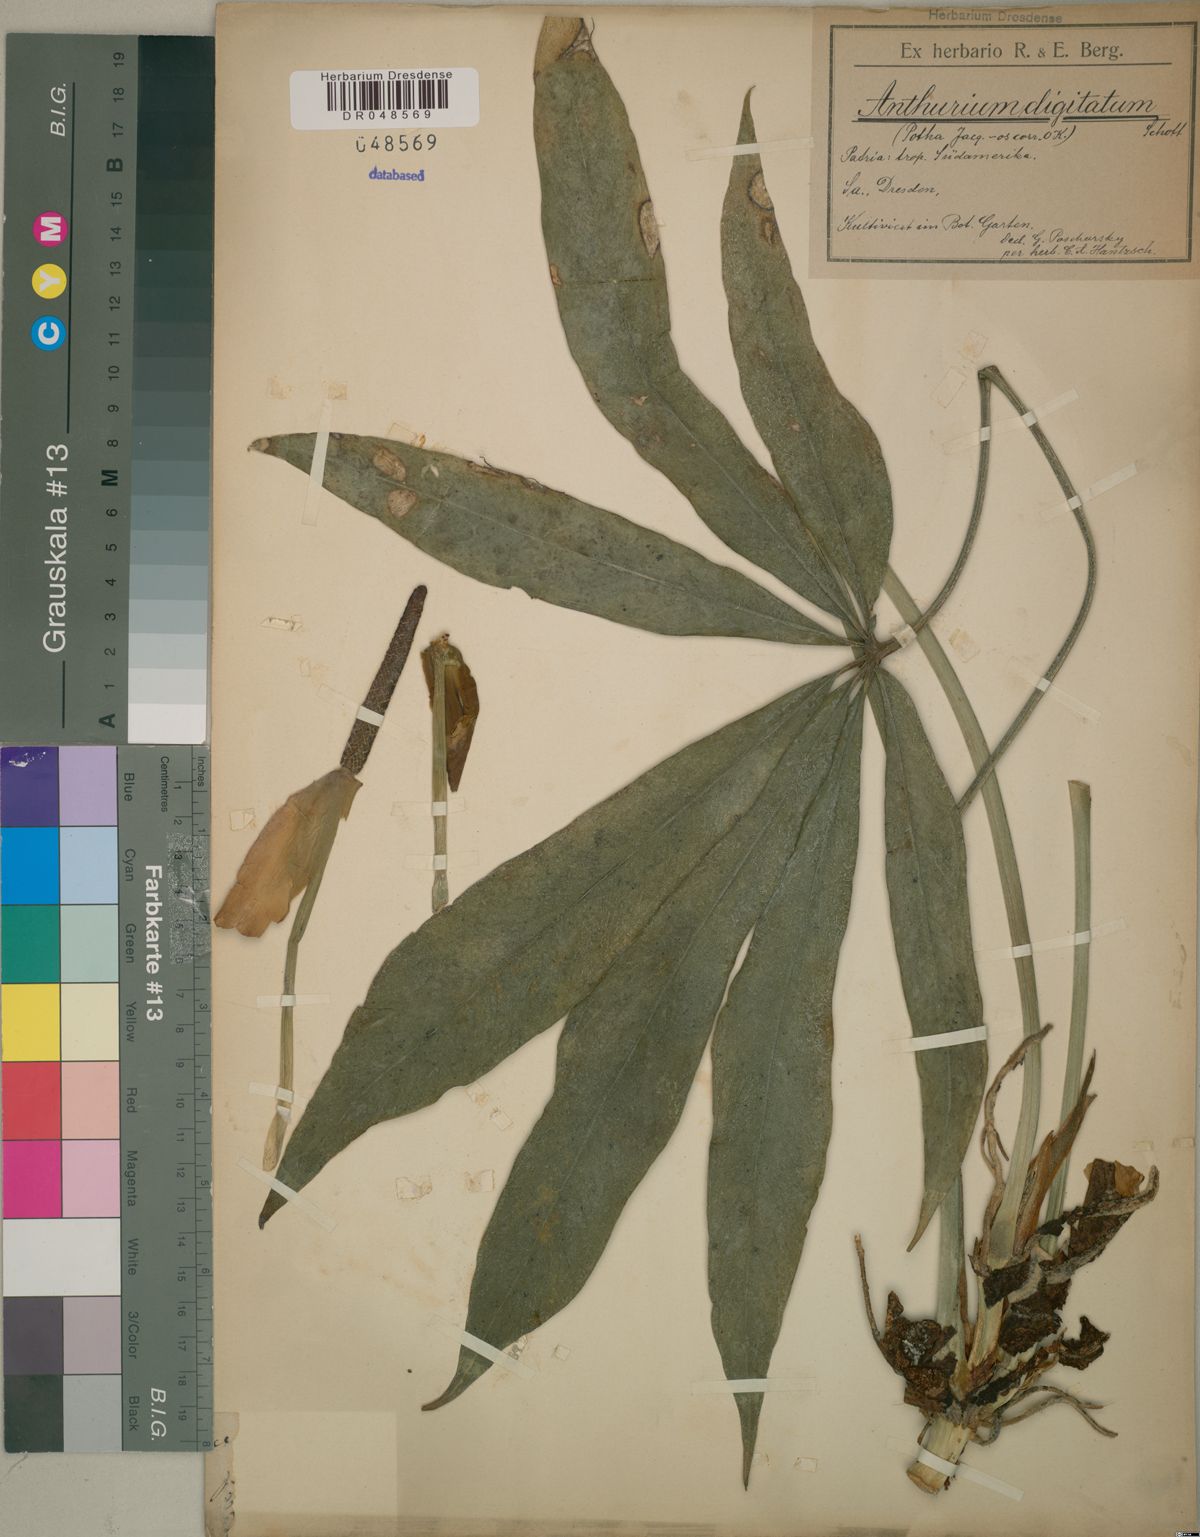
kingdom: Plantae
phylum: Tracheophyta
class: Liliopsida
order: Alismatales
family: Araceae
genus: Anthurium
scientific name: Anthurium digitatum
